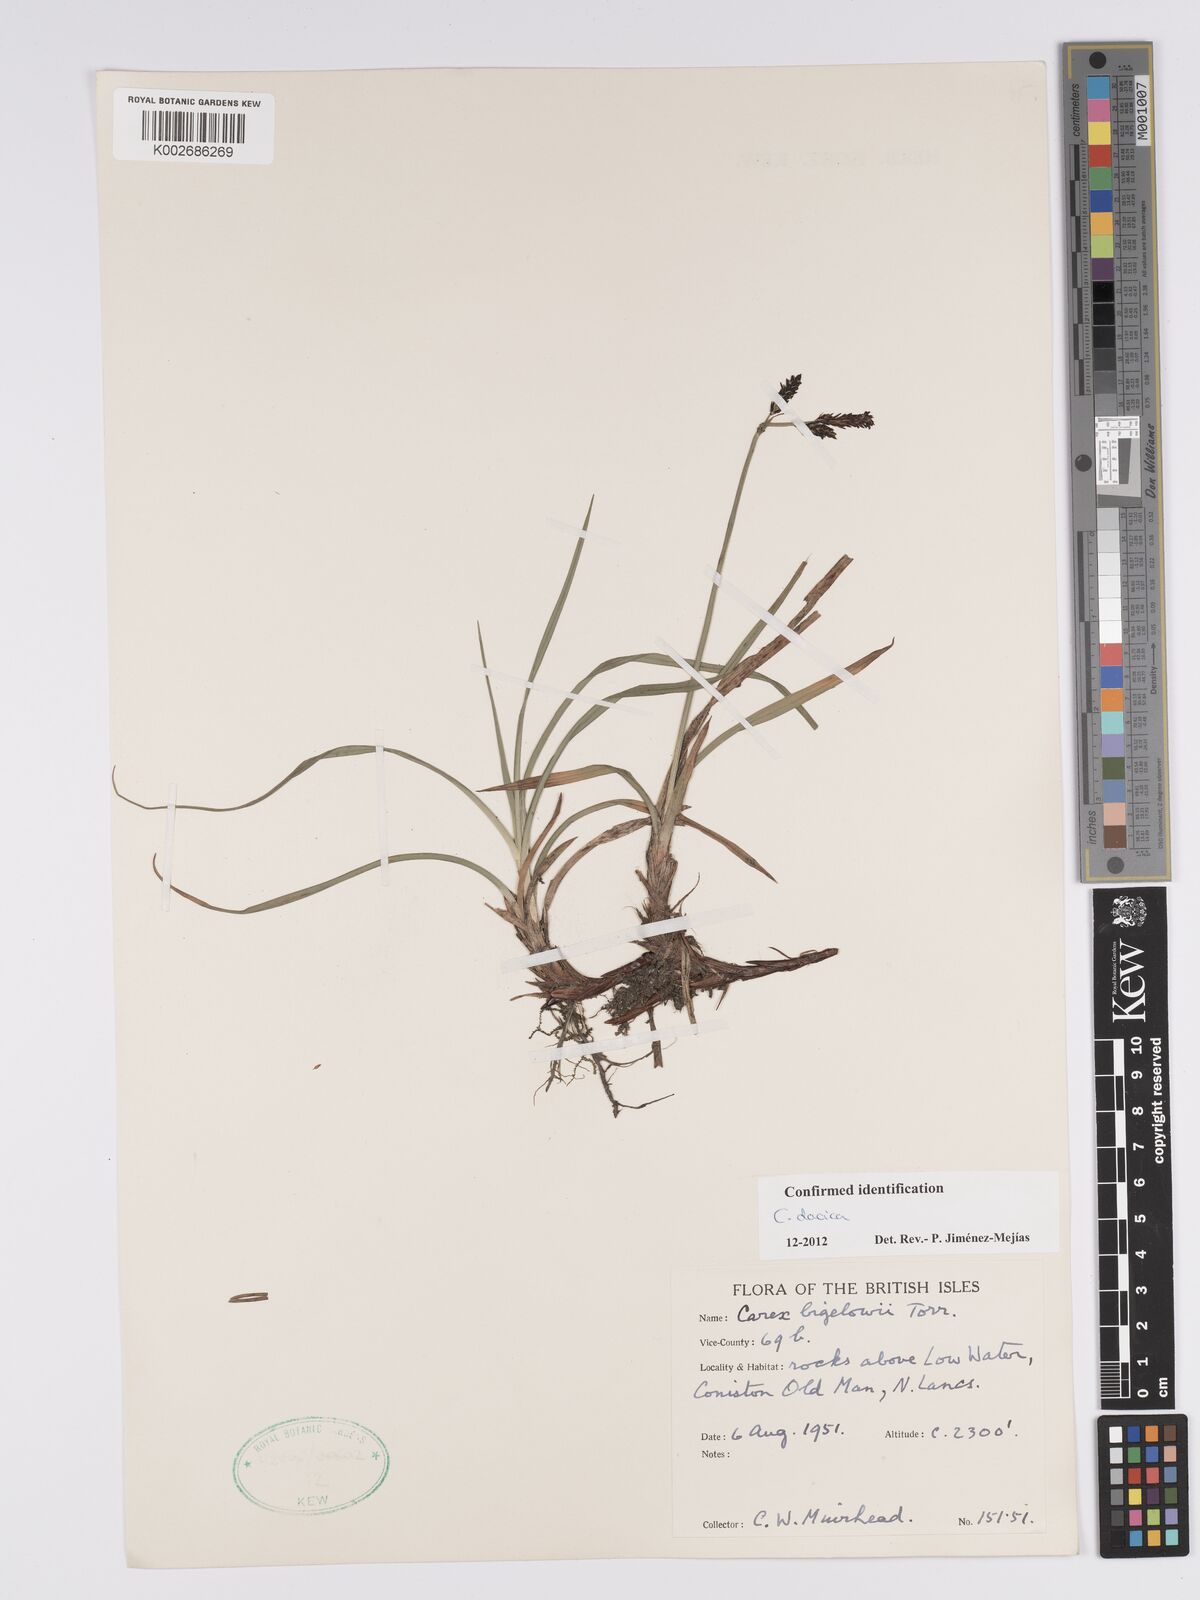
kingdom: Plantae
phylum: Tracheophyta
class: Liliopsida
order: Poales
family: Cyperaceae
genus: Carex
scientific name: Carex bigelowii
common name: Stiff sedge
